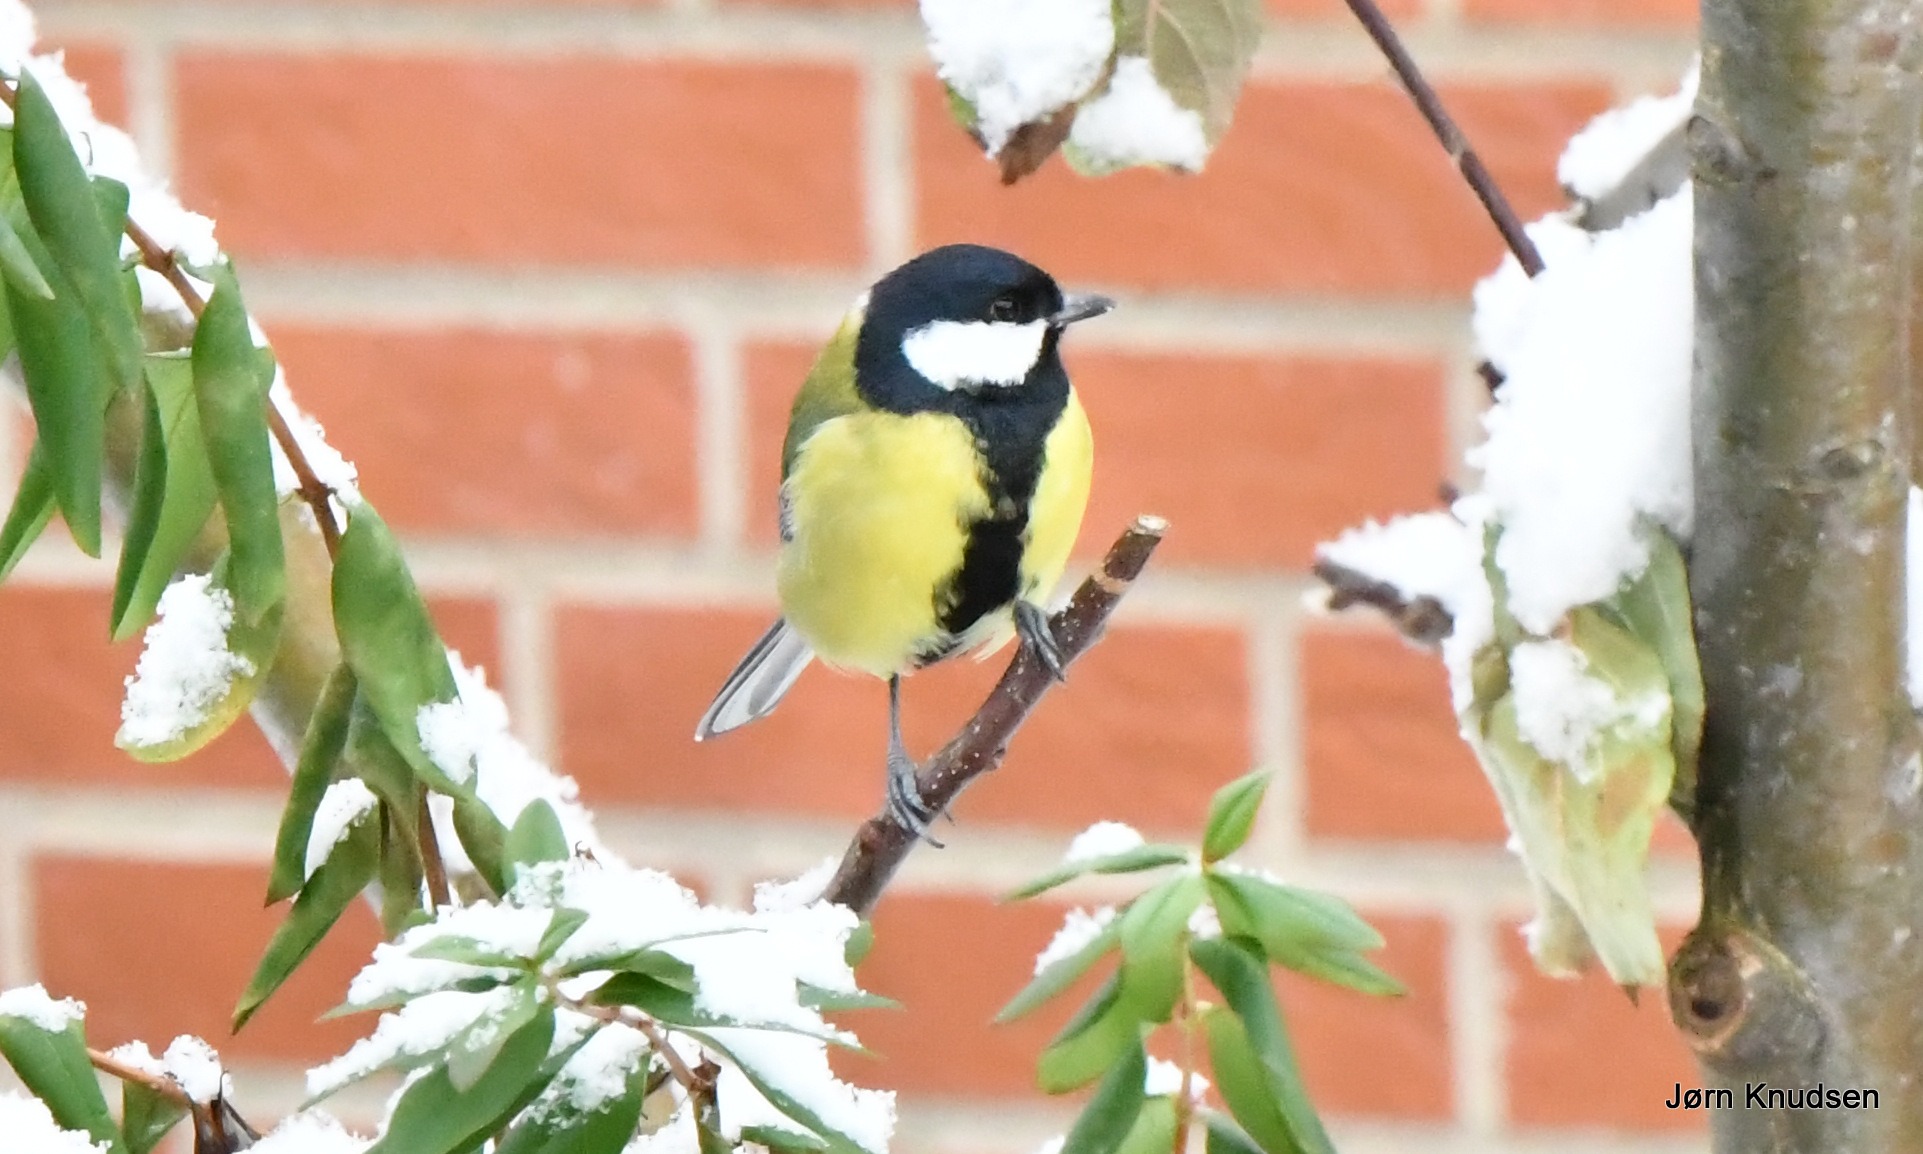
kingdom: Animalia
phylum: Chordata
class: Aves
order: Passeriformes
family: Paridae
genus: Parus
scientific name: Parus major
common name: Musvit
